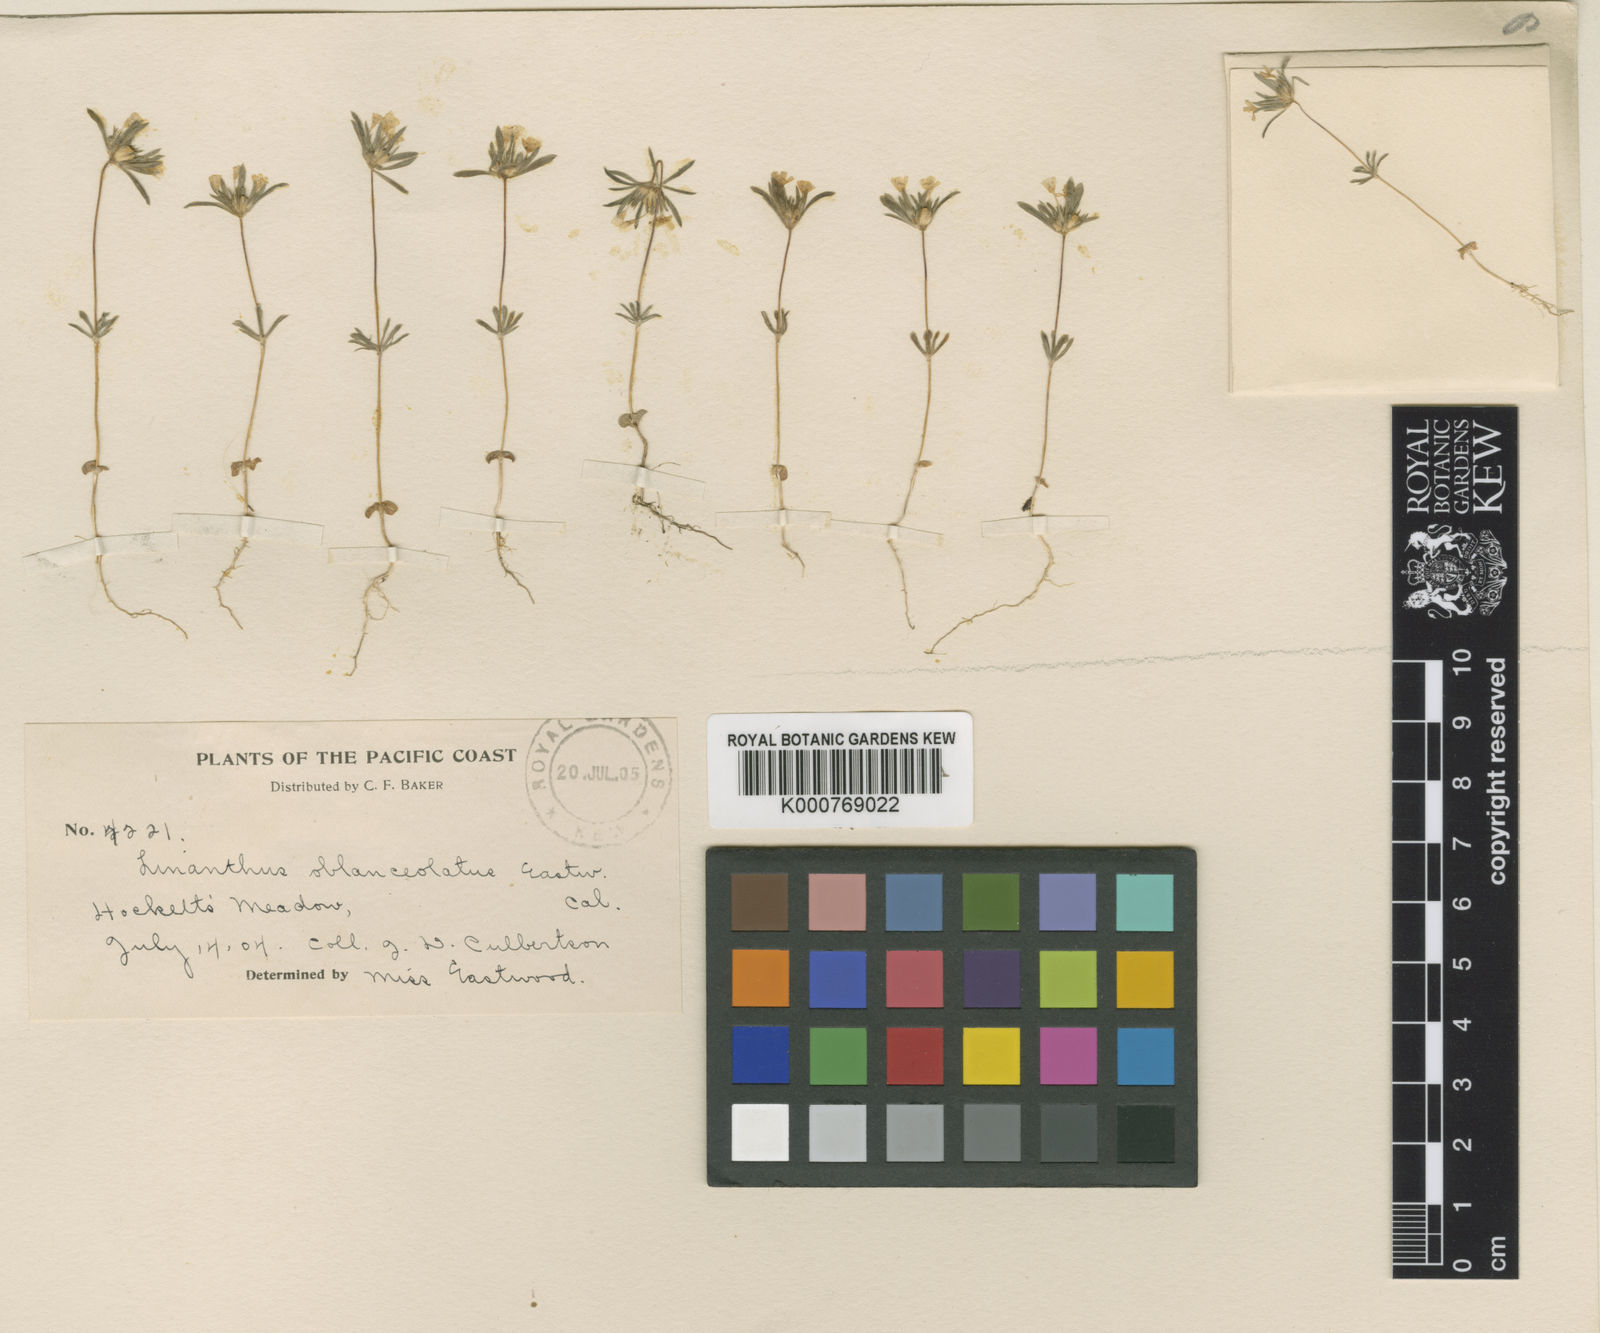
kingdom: Plantae
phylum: Tracheophyta
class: Magnoliopsida
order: Ericales
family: Polemoniaceae
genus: Linanthus
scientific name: Linanthus
